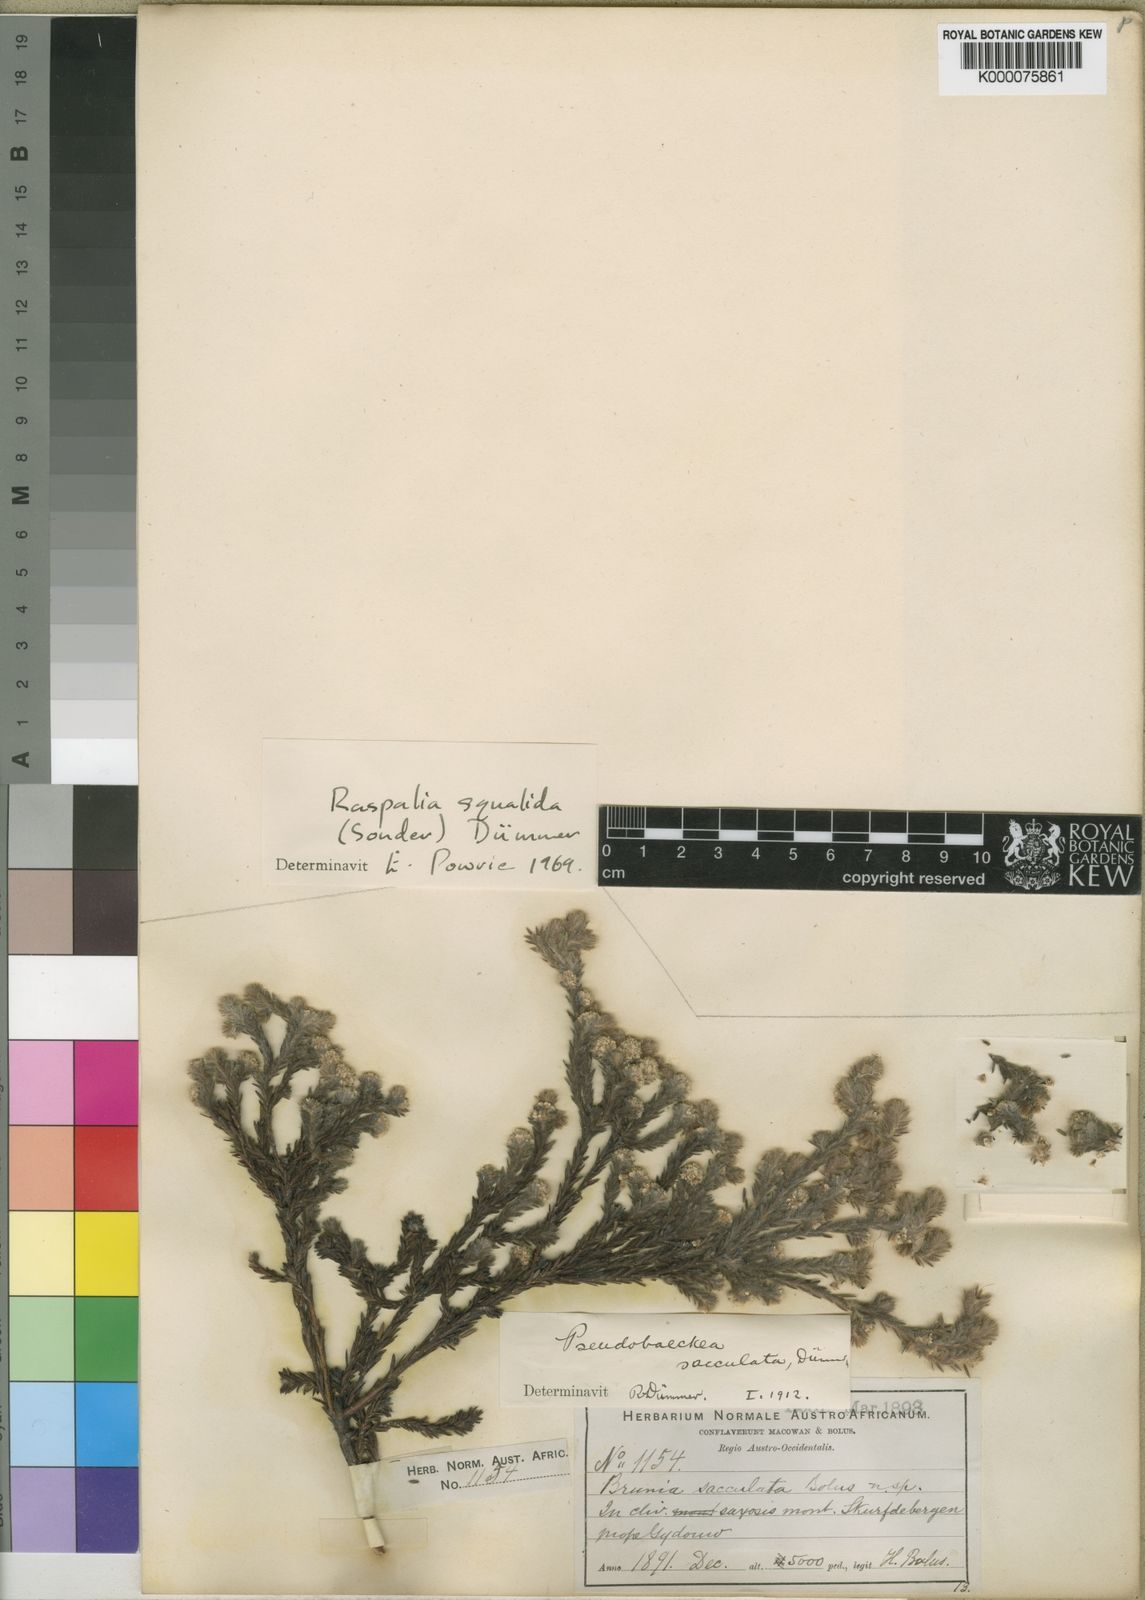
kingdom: Plantae
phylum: Tracheophyta
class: Magnoliopsida
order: Bruniales
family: Bruniaceae
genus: Brunia
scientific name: Brunia sacculata
